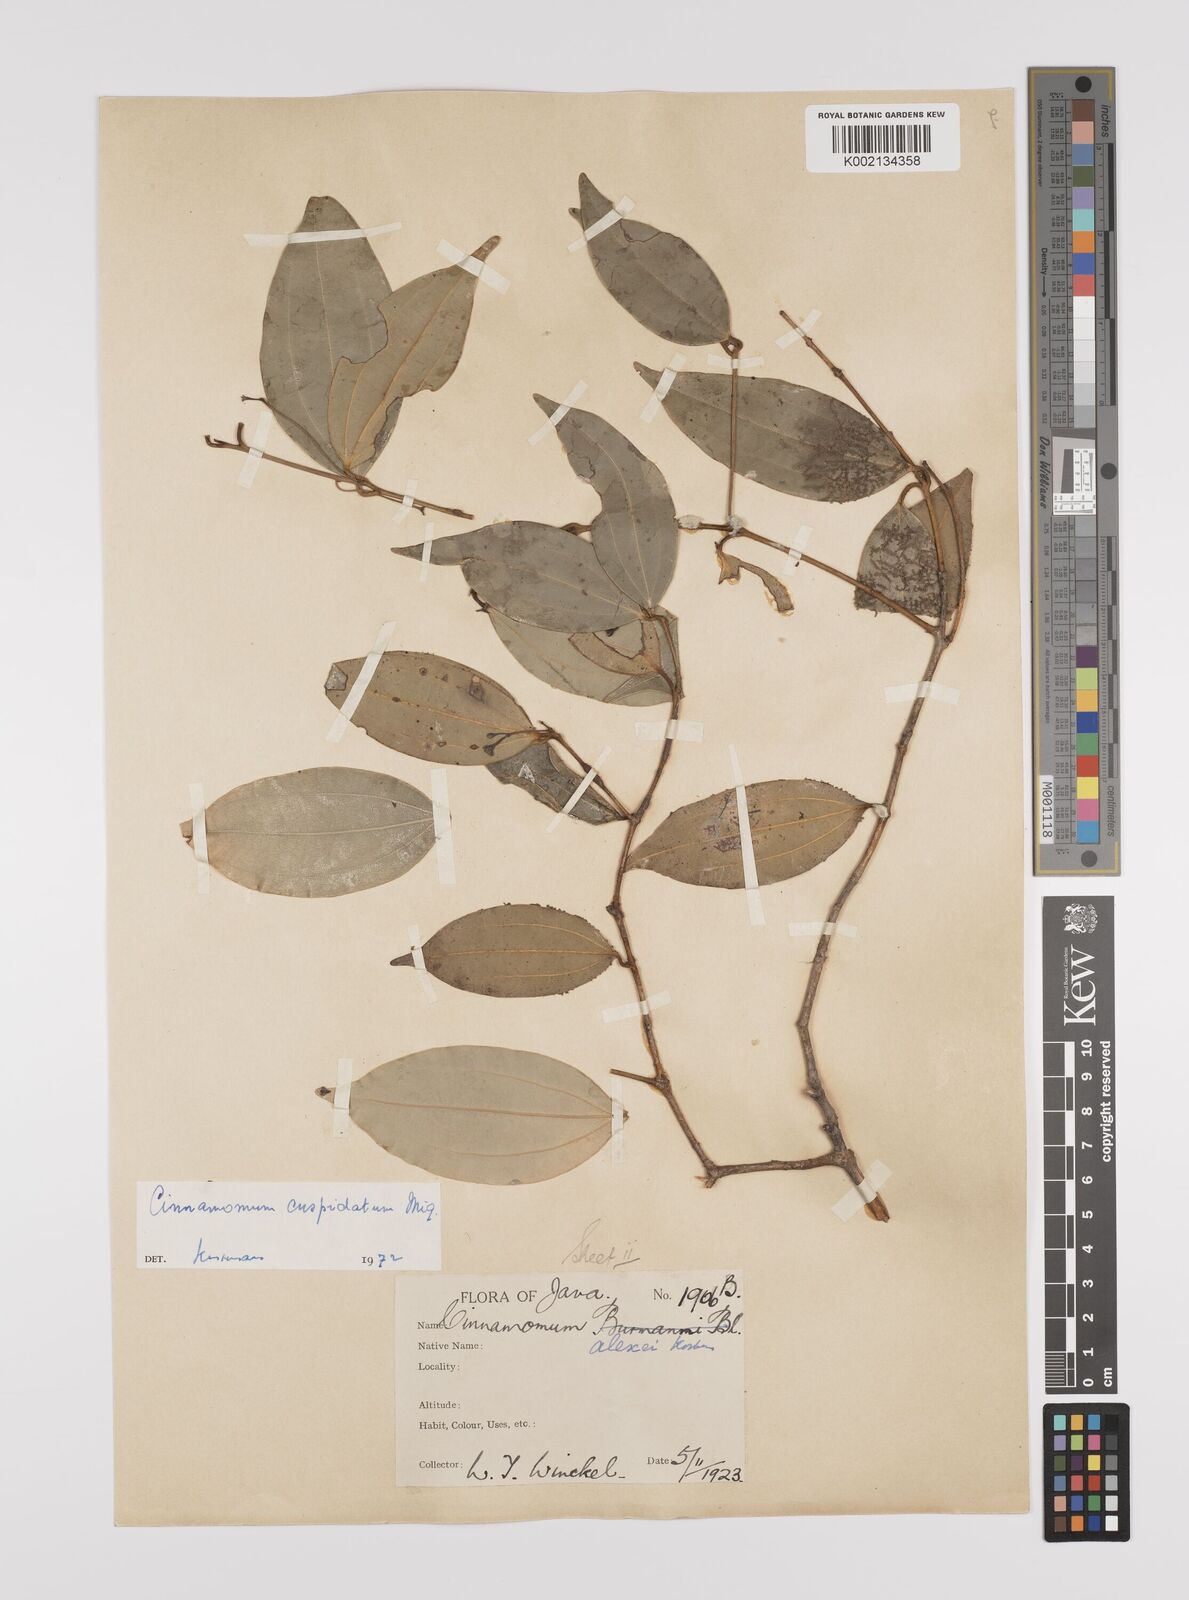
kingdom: Plantae
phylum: Tracheophyta
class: Magnoliopsida
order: Laurales
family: Lauraceae
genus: Cinnamomum
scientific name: Cinnamomum cuspidatum
